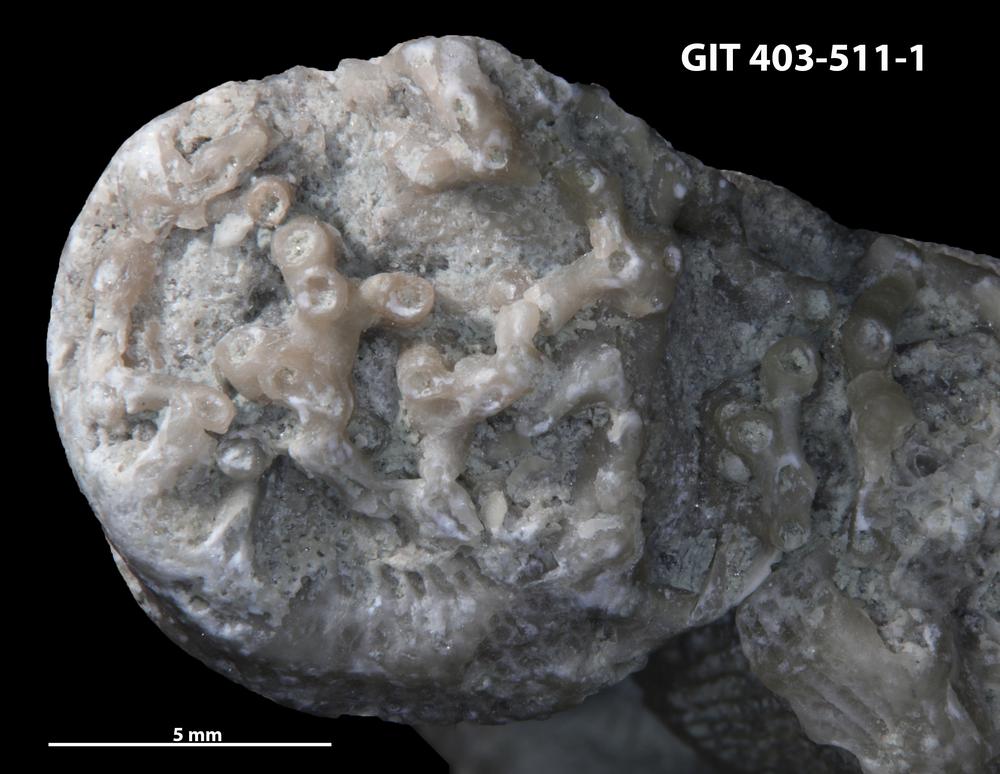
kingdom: Animalia
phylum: Cnidaria
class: Anthozoa
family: Auloporidae
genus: Aulopora
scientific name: Aulopora
